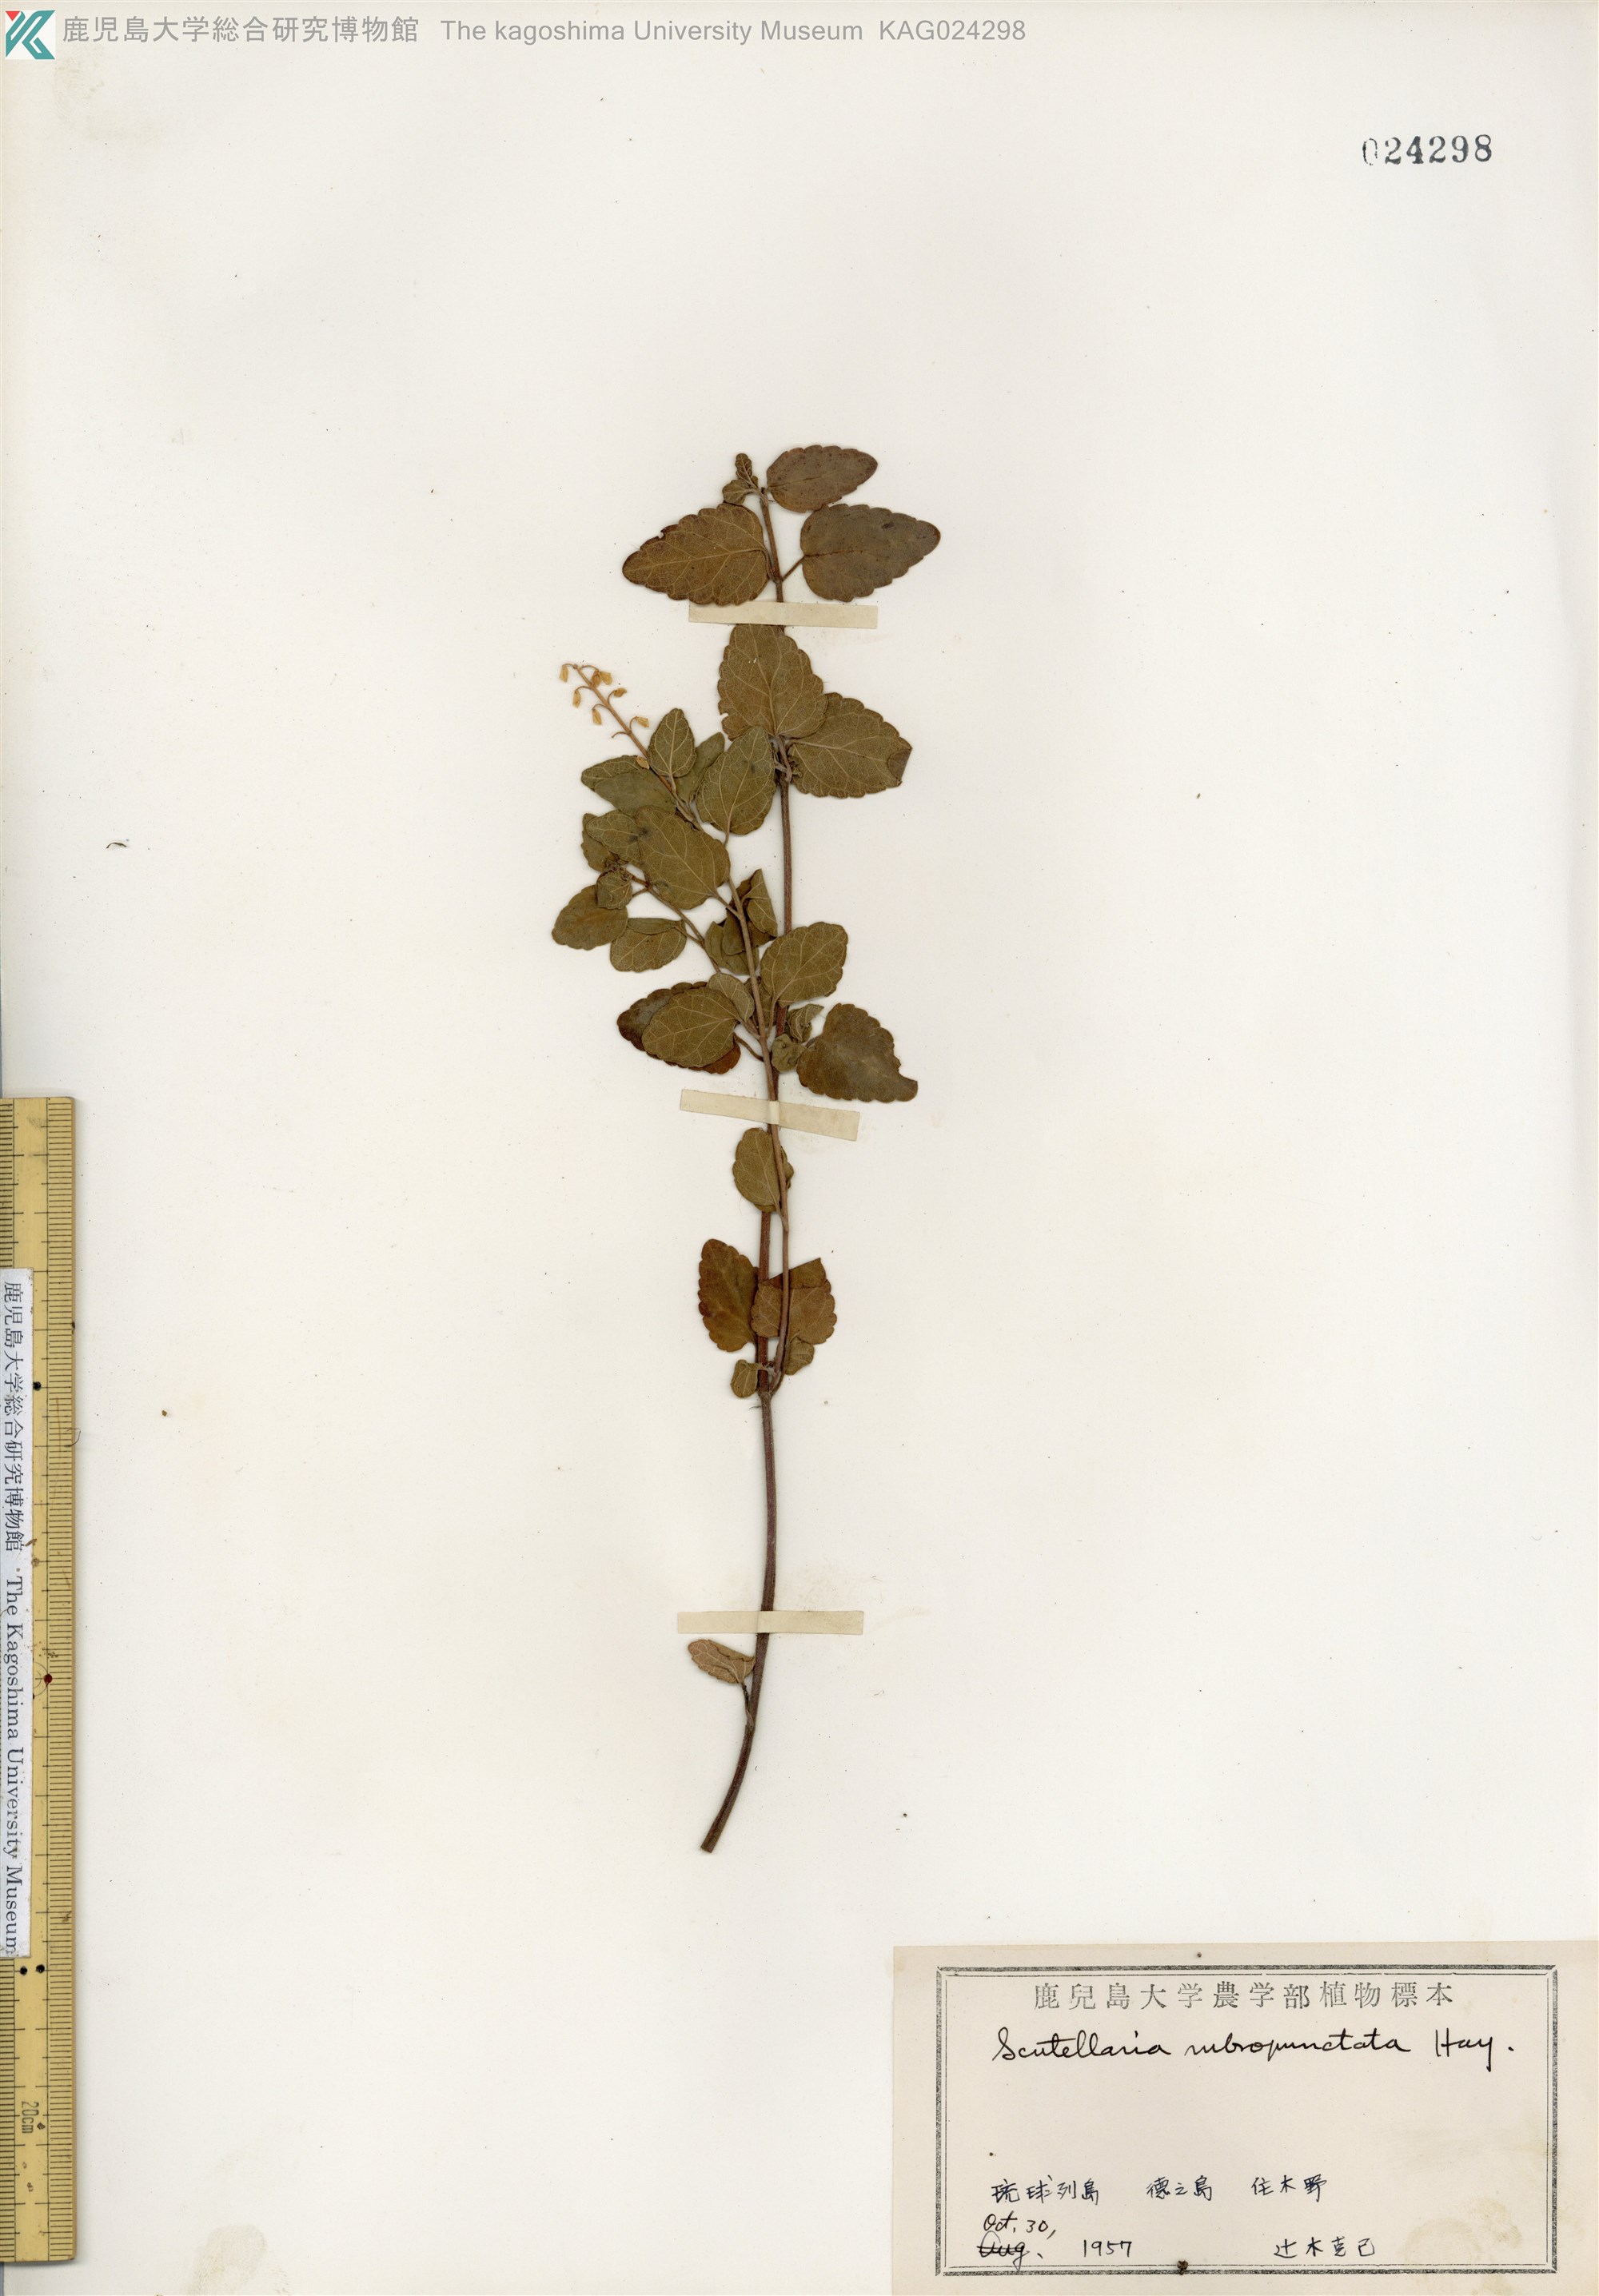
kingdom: Plantae
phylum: Tracheophyta
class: Magnoliopsida
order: Lamiales
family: Lamiaceae
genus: Scutellaria
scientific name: Scutellaria rubropunctata
